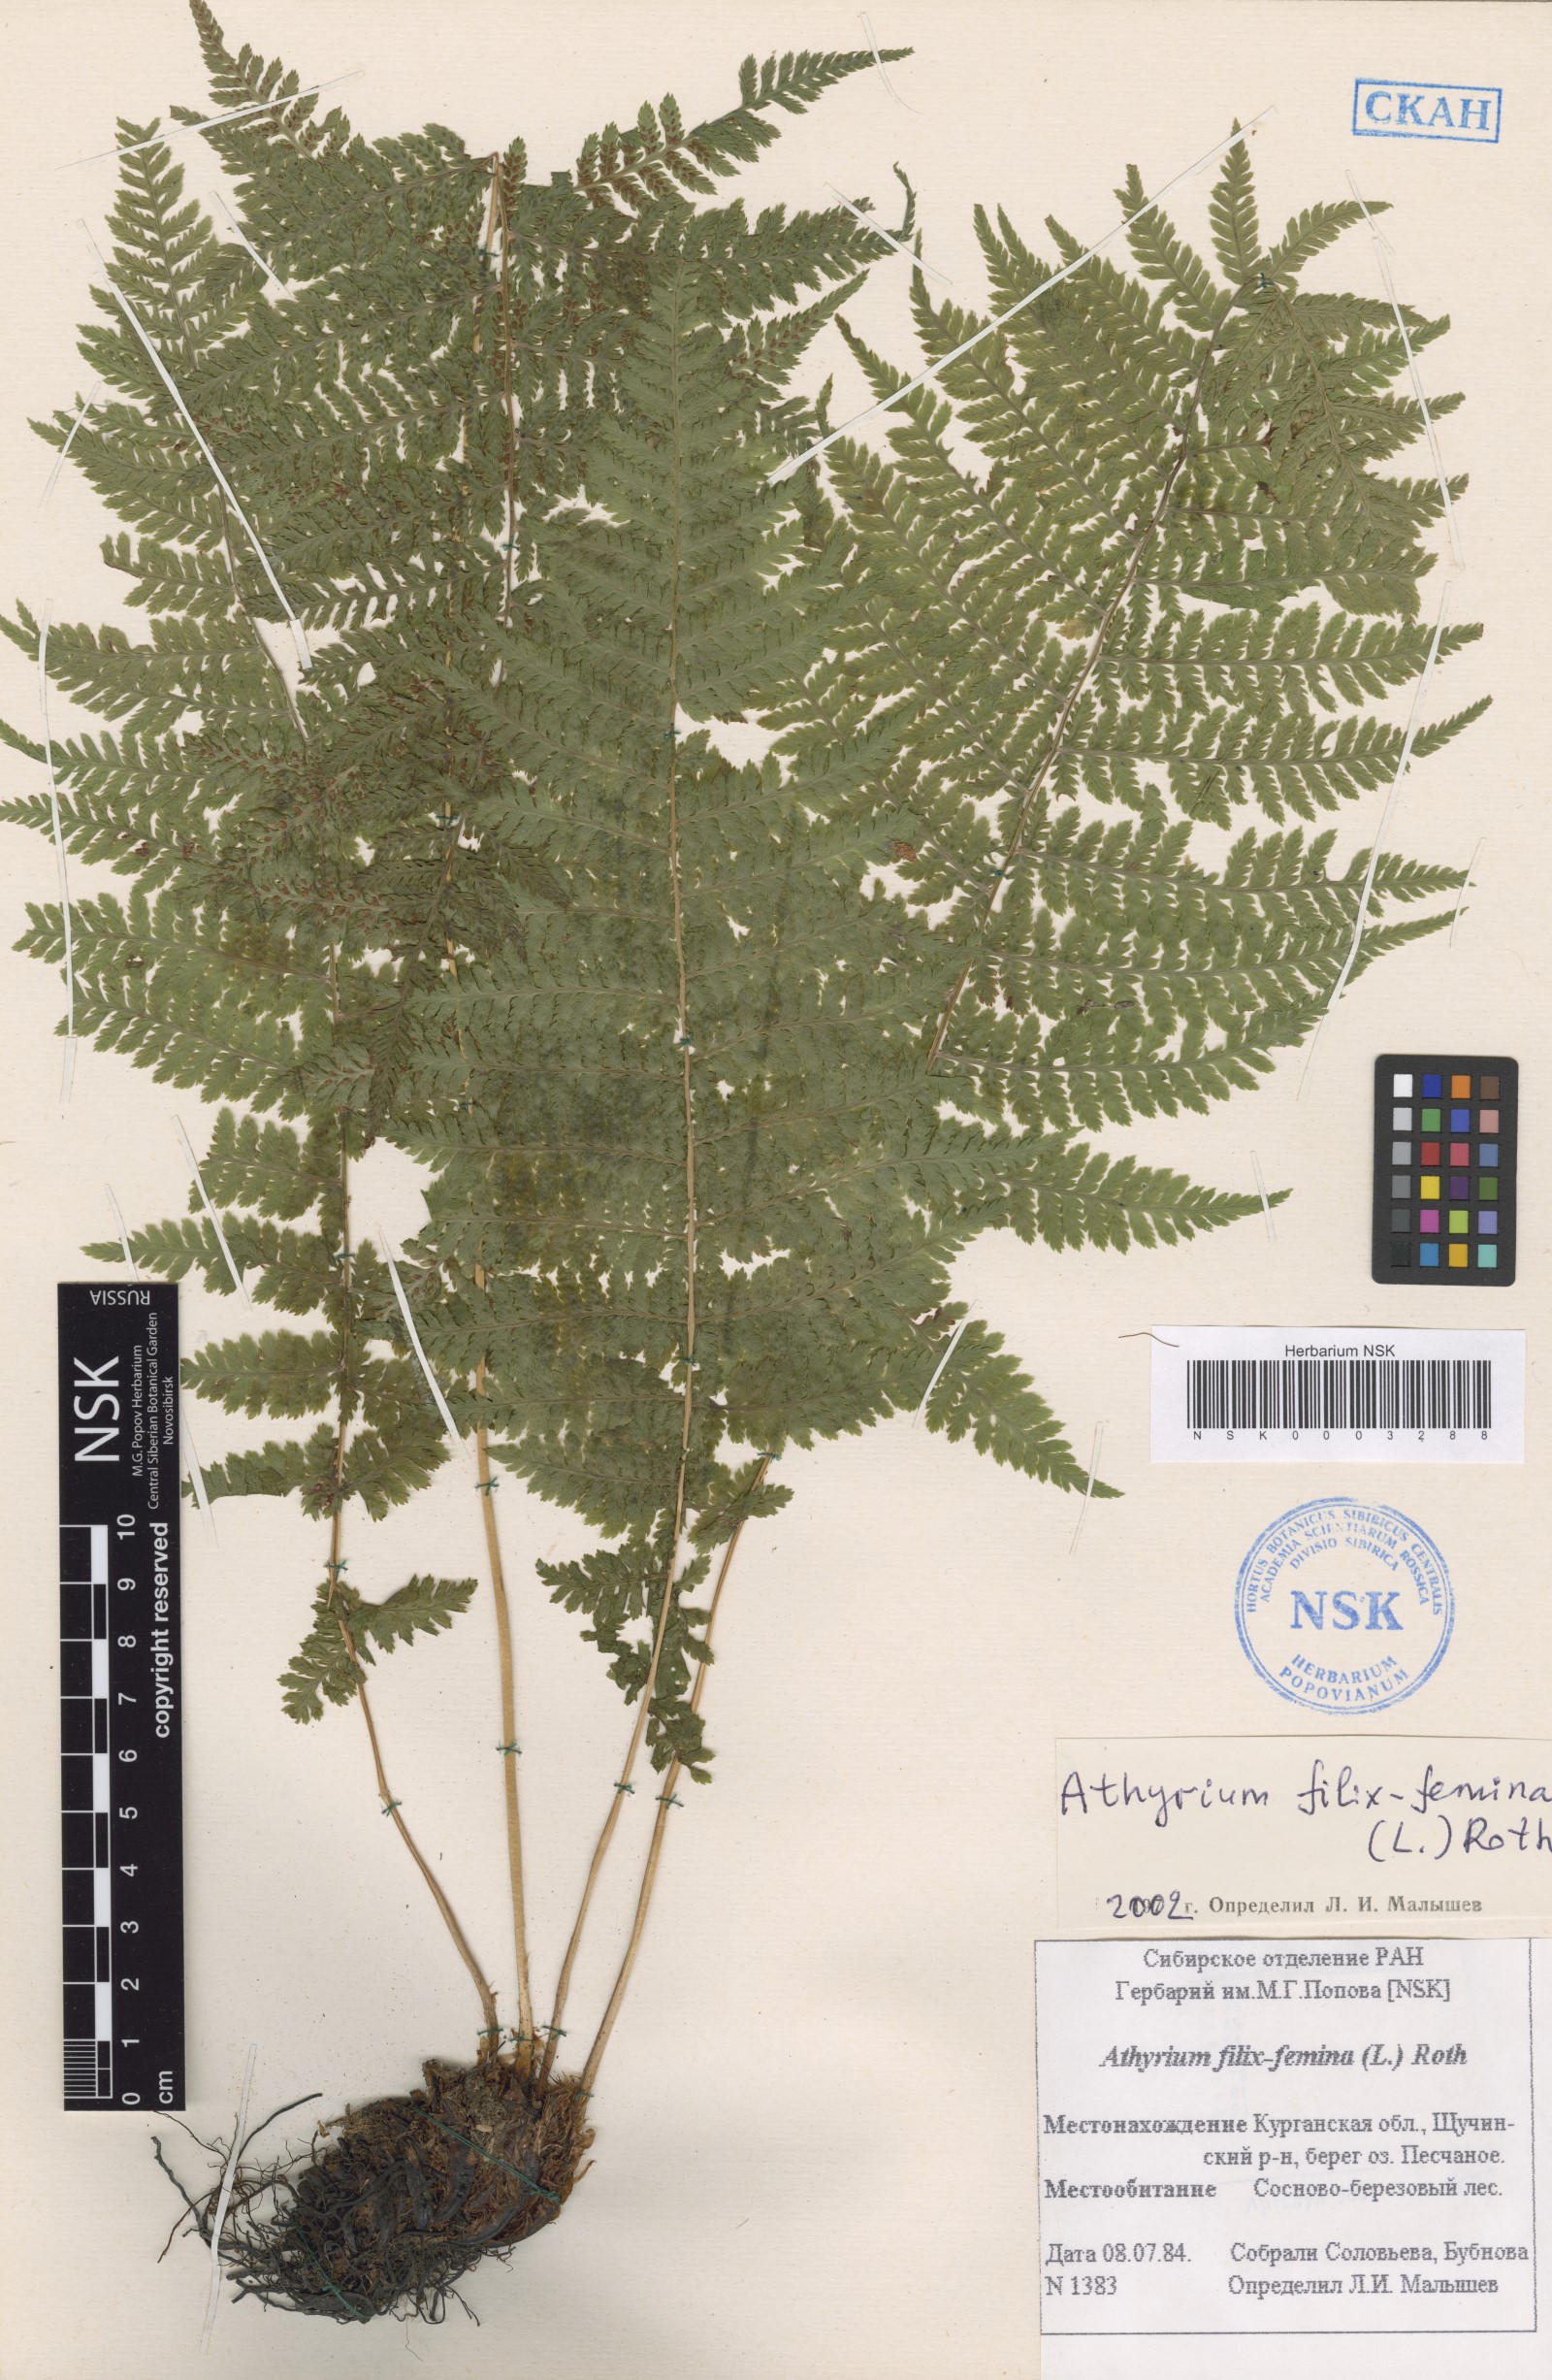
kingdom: Plantae
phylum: Tracheophyta
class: Polypodiopsida
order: Polypodiales
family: Athyriaceae
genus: Athyrium
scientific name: Athyrium filix-femina
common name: Lady fern
